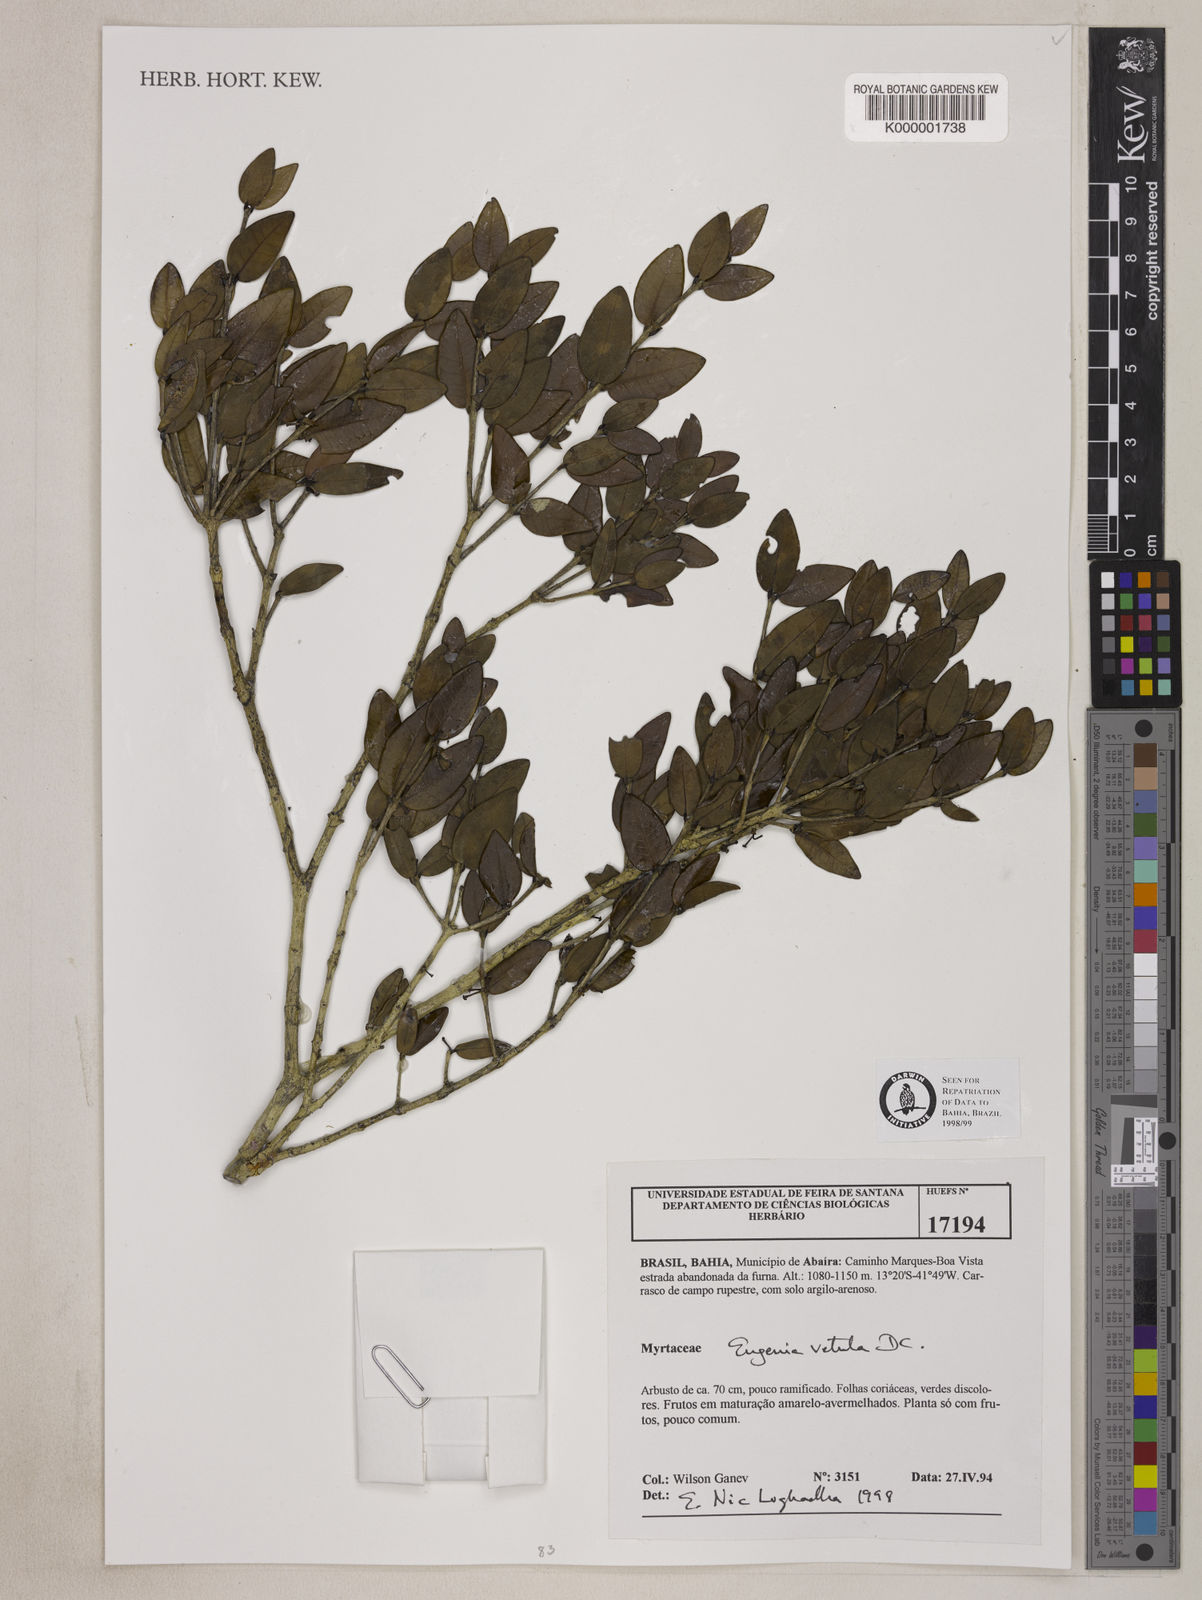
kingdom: Plantae
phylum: Tracheophyta
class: Magnoliopsida
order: Myrtales
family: Myrtaceae
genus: Eugenia
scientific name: Eugenia vetula
